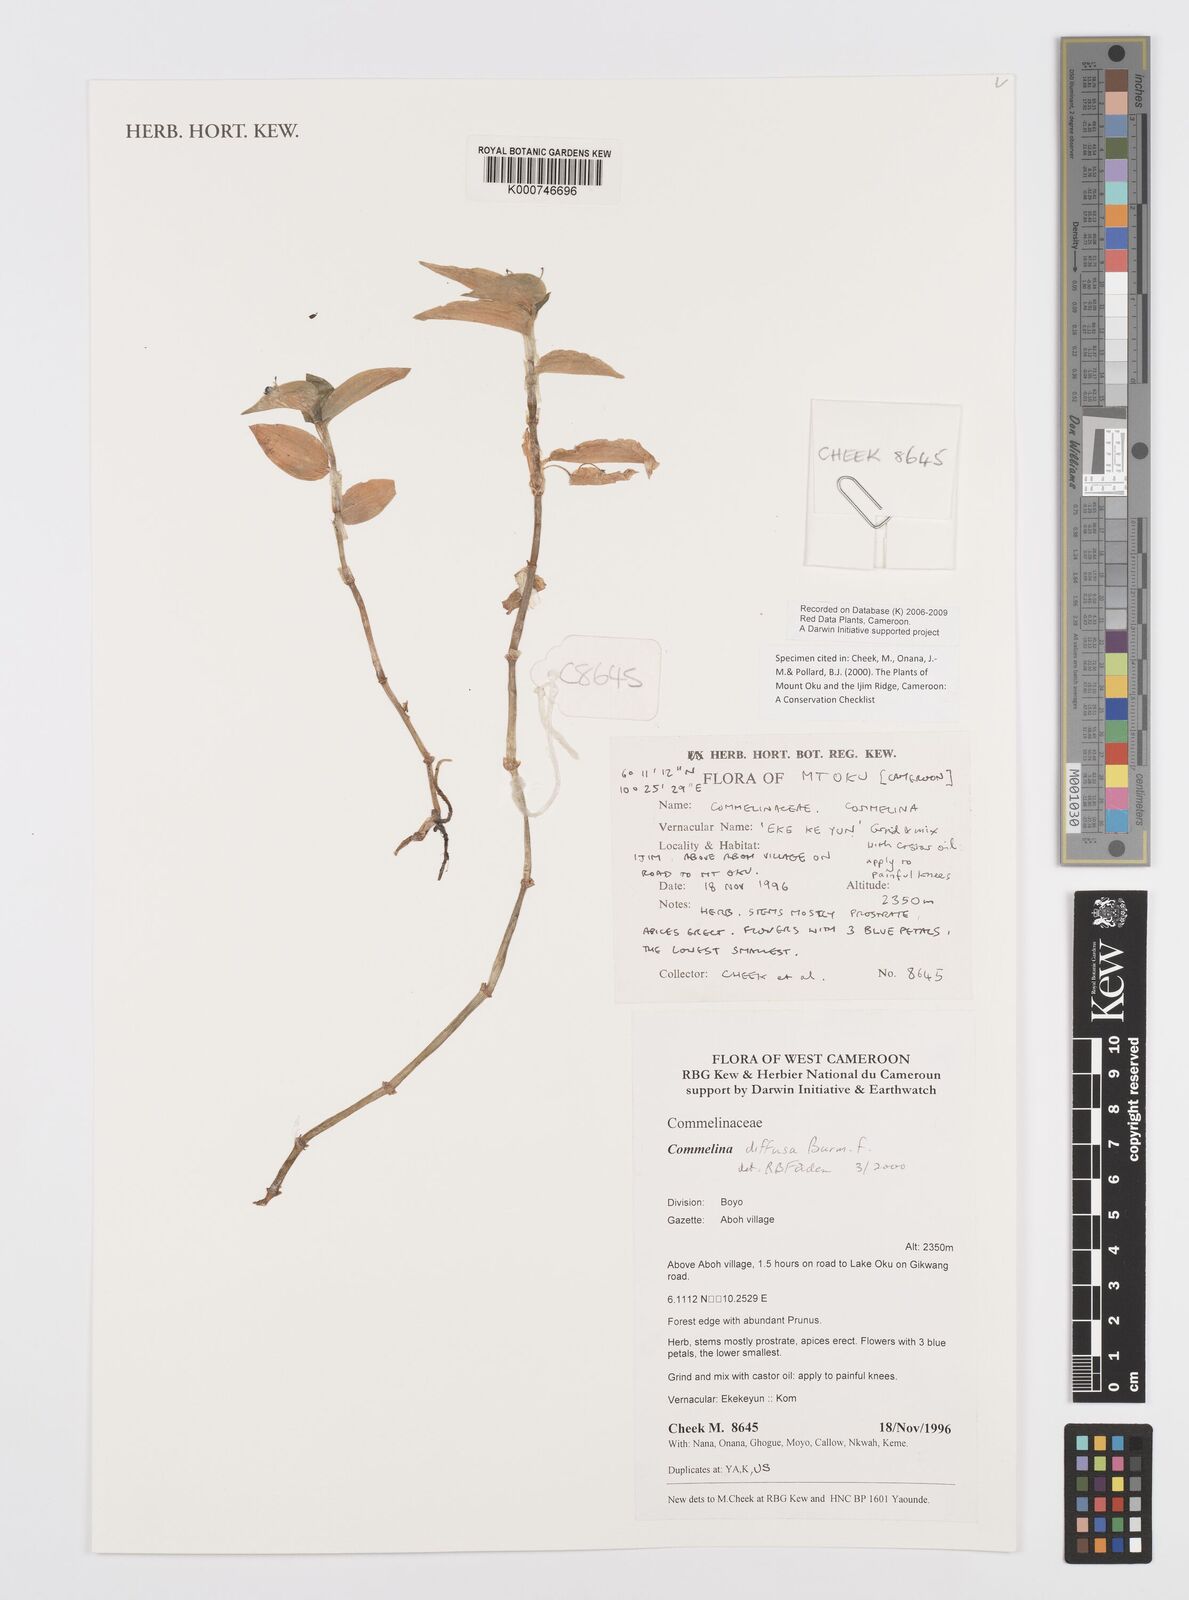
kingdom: Plantae
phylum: Tracheophyta
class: Liliopsida
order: Commelinales
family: Commelinaceae
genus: Commelina
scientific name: Commelina diffusa
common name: Climbing dayflower
